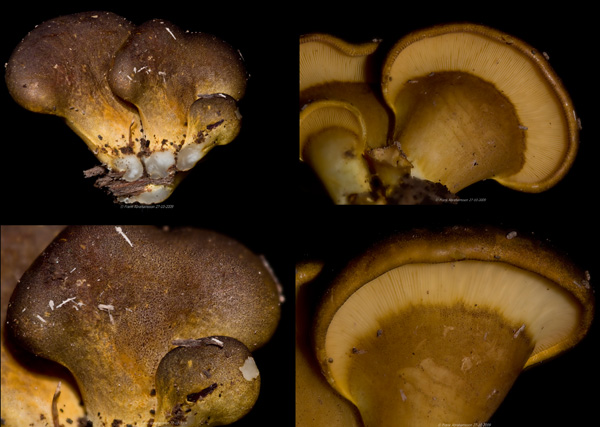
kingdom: Fungi
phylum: Basidiomycota
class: Agaricomycetes
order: Agaricales
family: Sarcomyxaceae
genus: Sarcomyxa
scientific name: Sarcomyxa serotina
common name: gummihat
